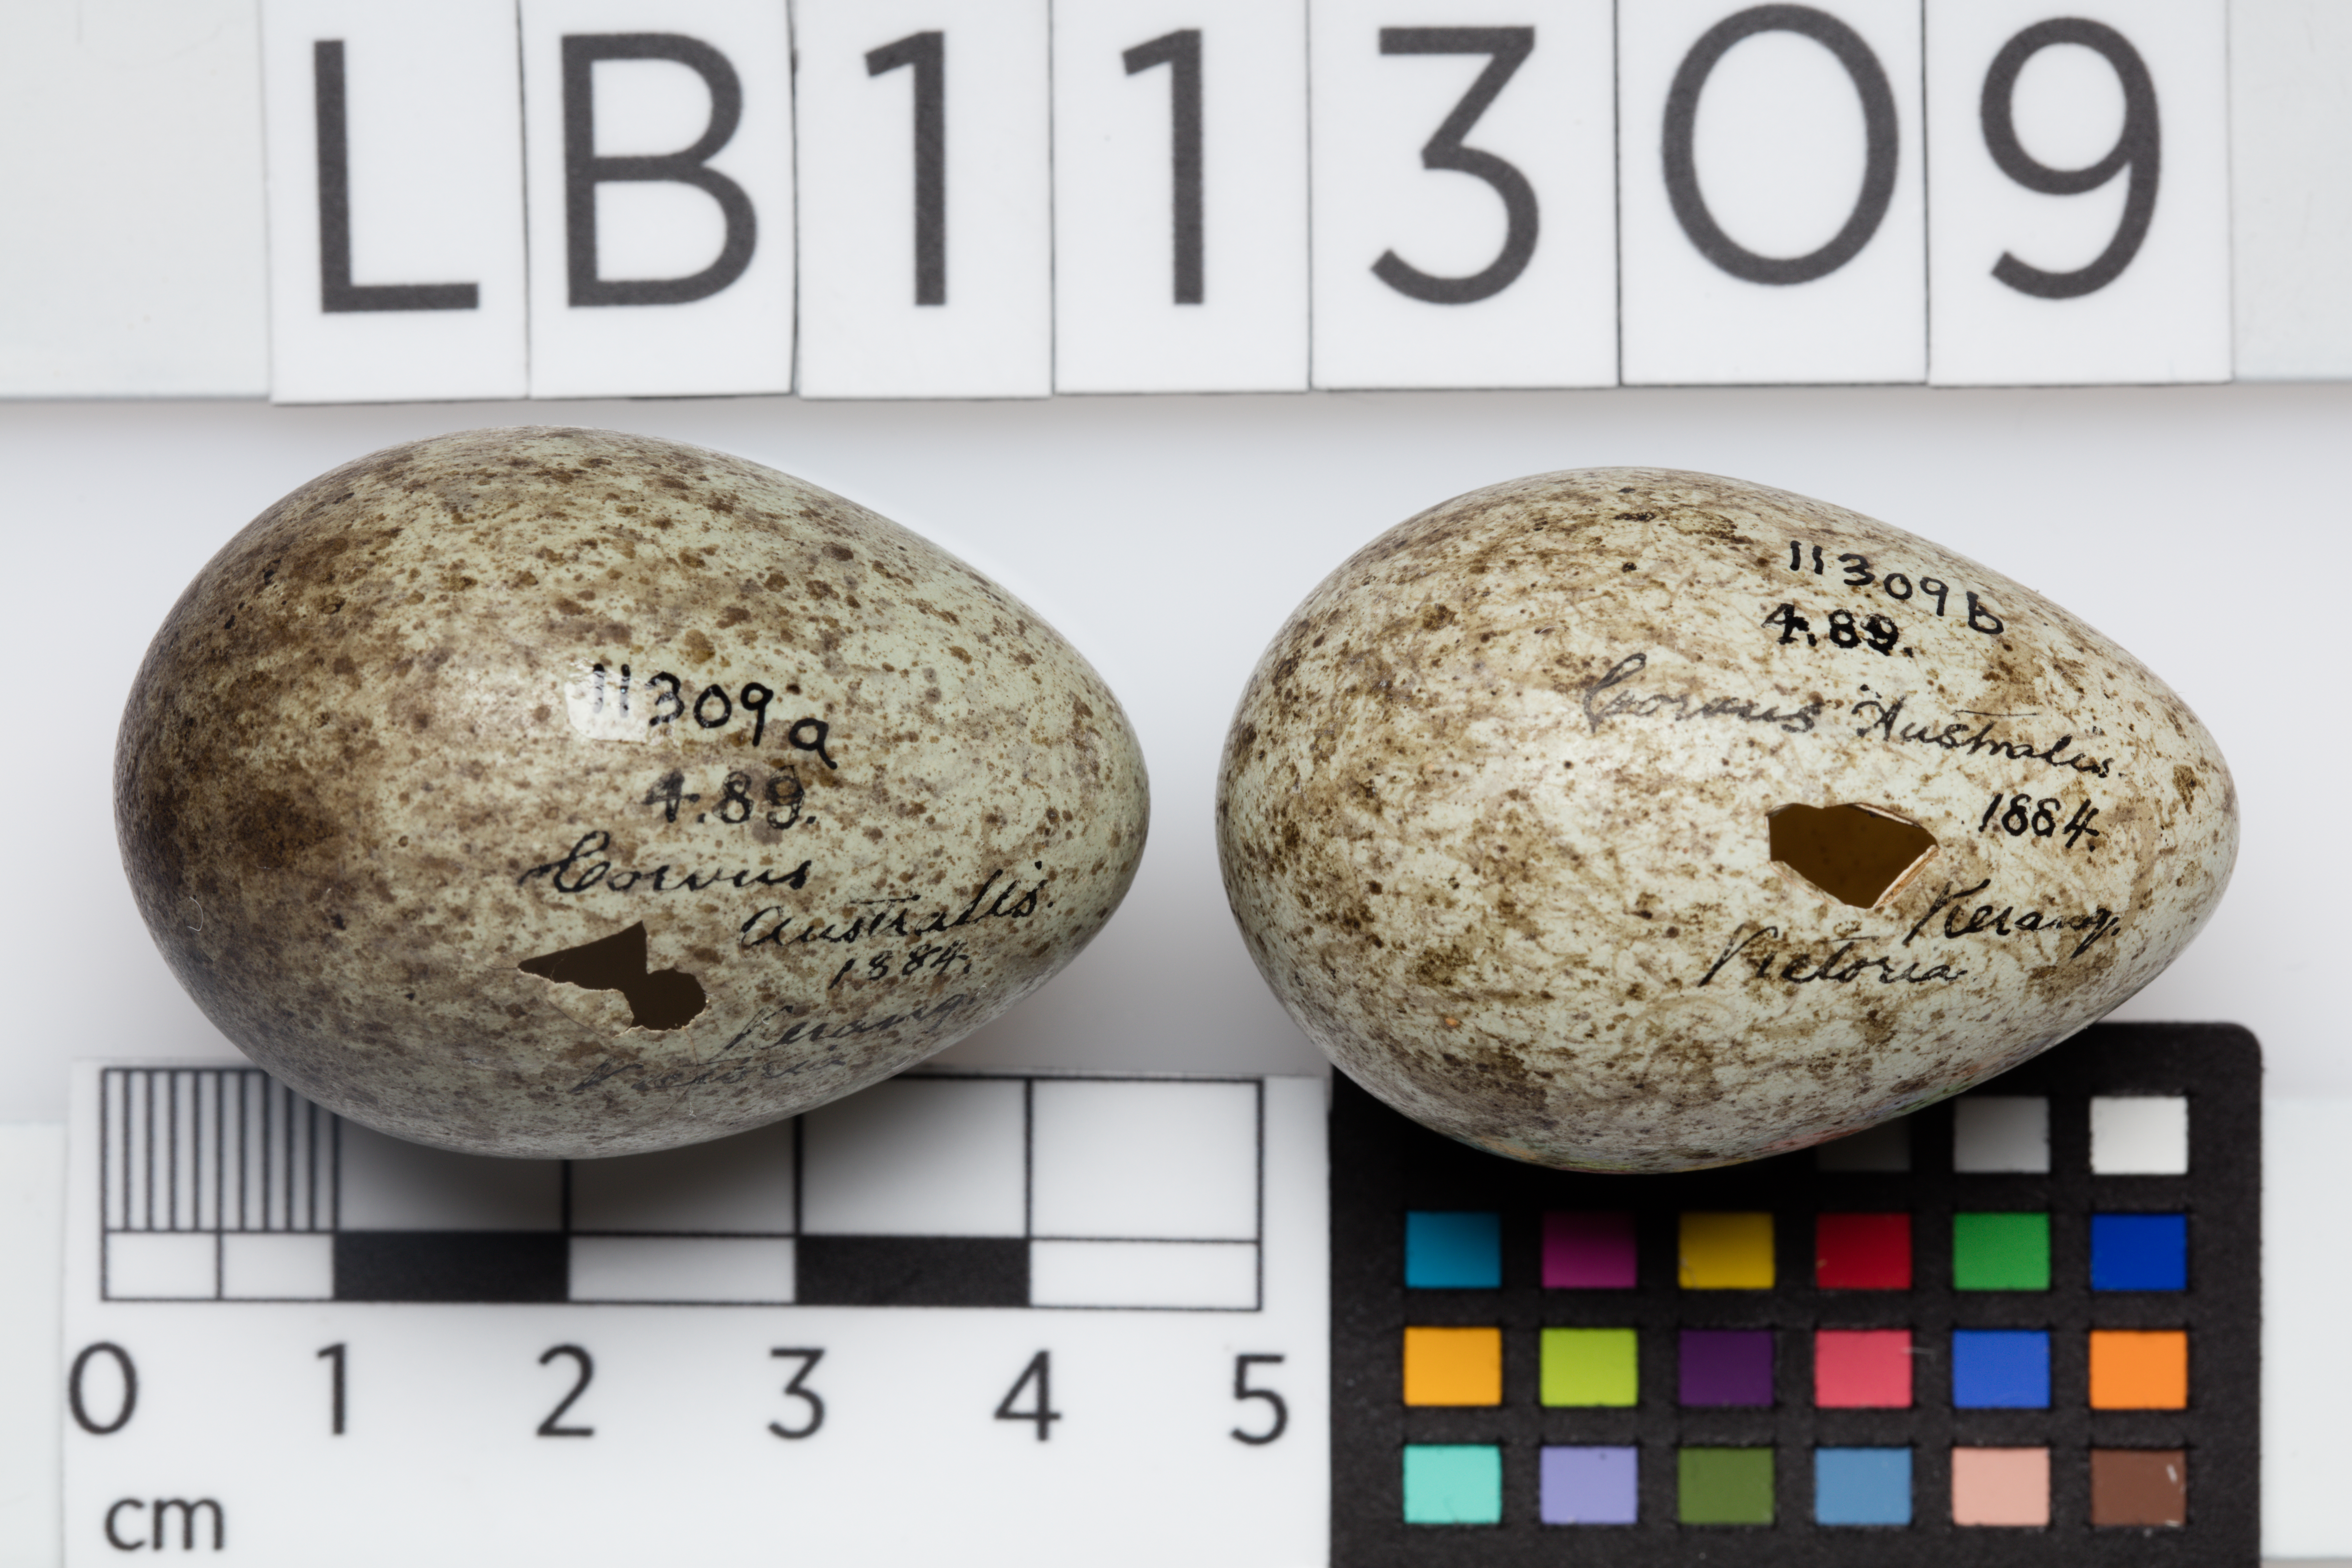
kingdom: Animalia
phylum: Chordata
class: Aves
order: Passeriformes
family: Corvidae
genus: Corvus
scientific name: Corvus mellori
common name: Little raven
